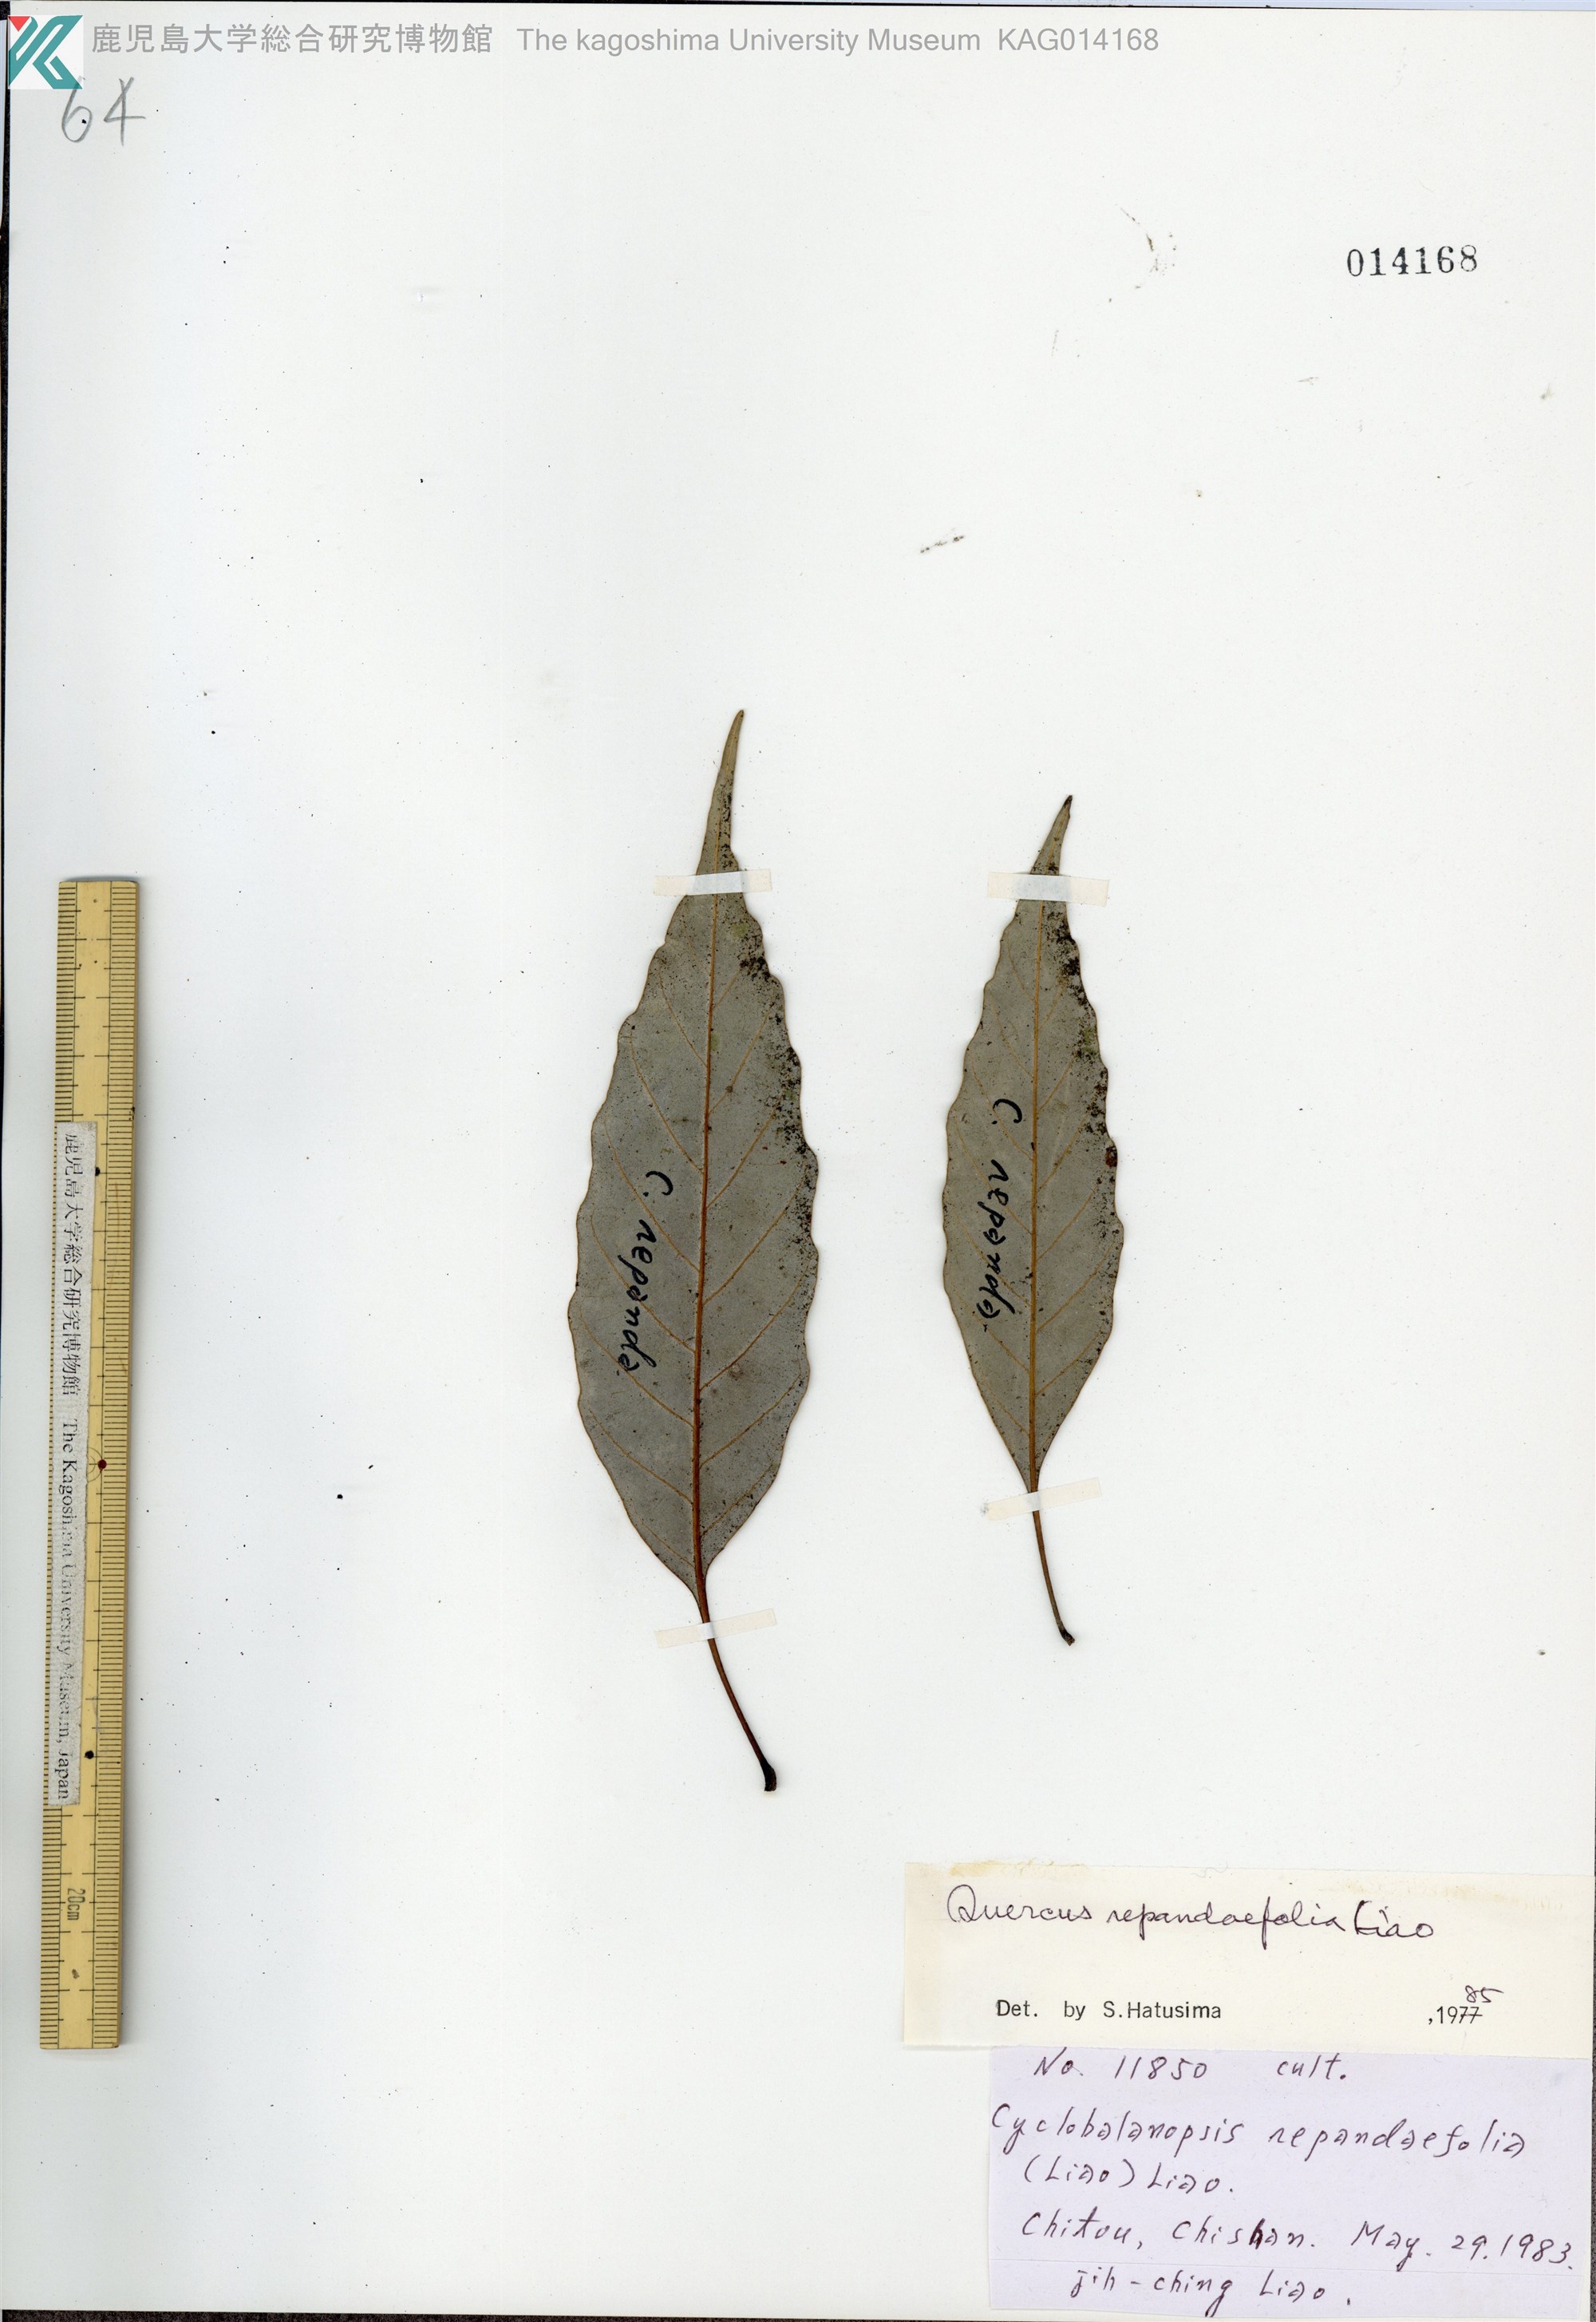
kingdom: Plantae
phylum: Tracheophyta
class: Magnoliopsida
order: Fagales
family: Fagaceae
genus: Quercus
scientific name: Quercus glauca
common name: Ring-cup oak
